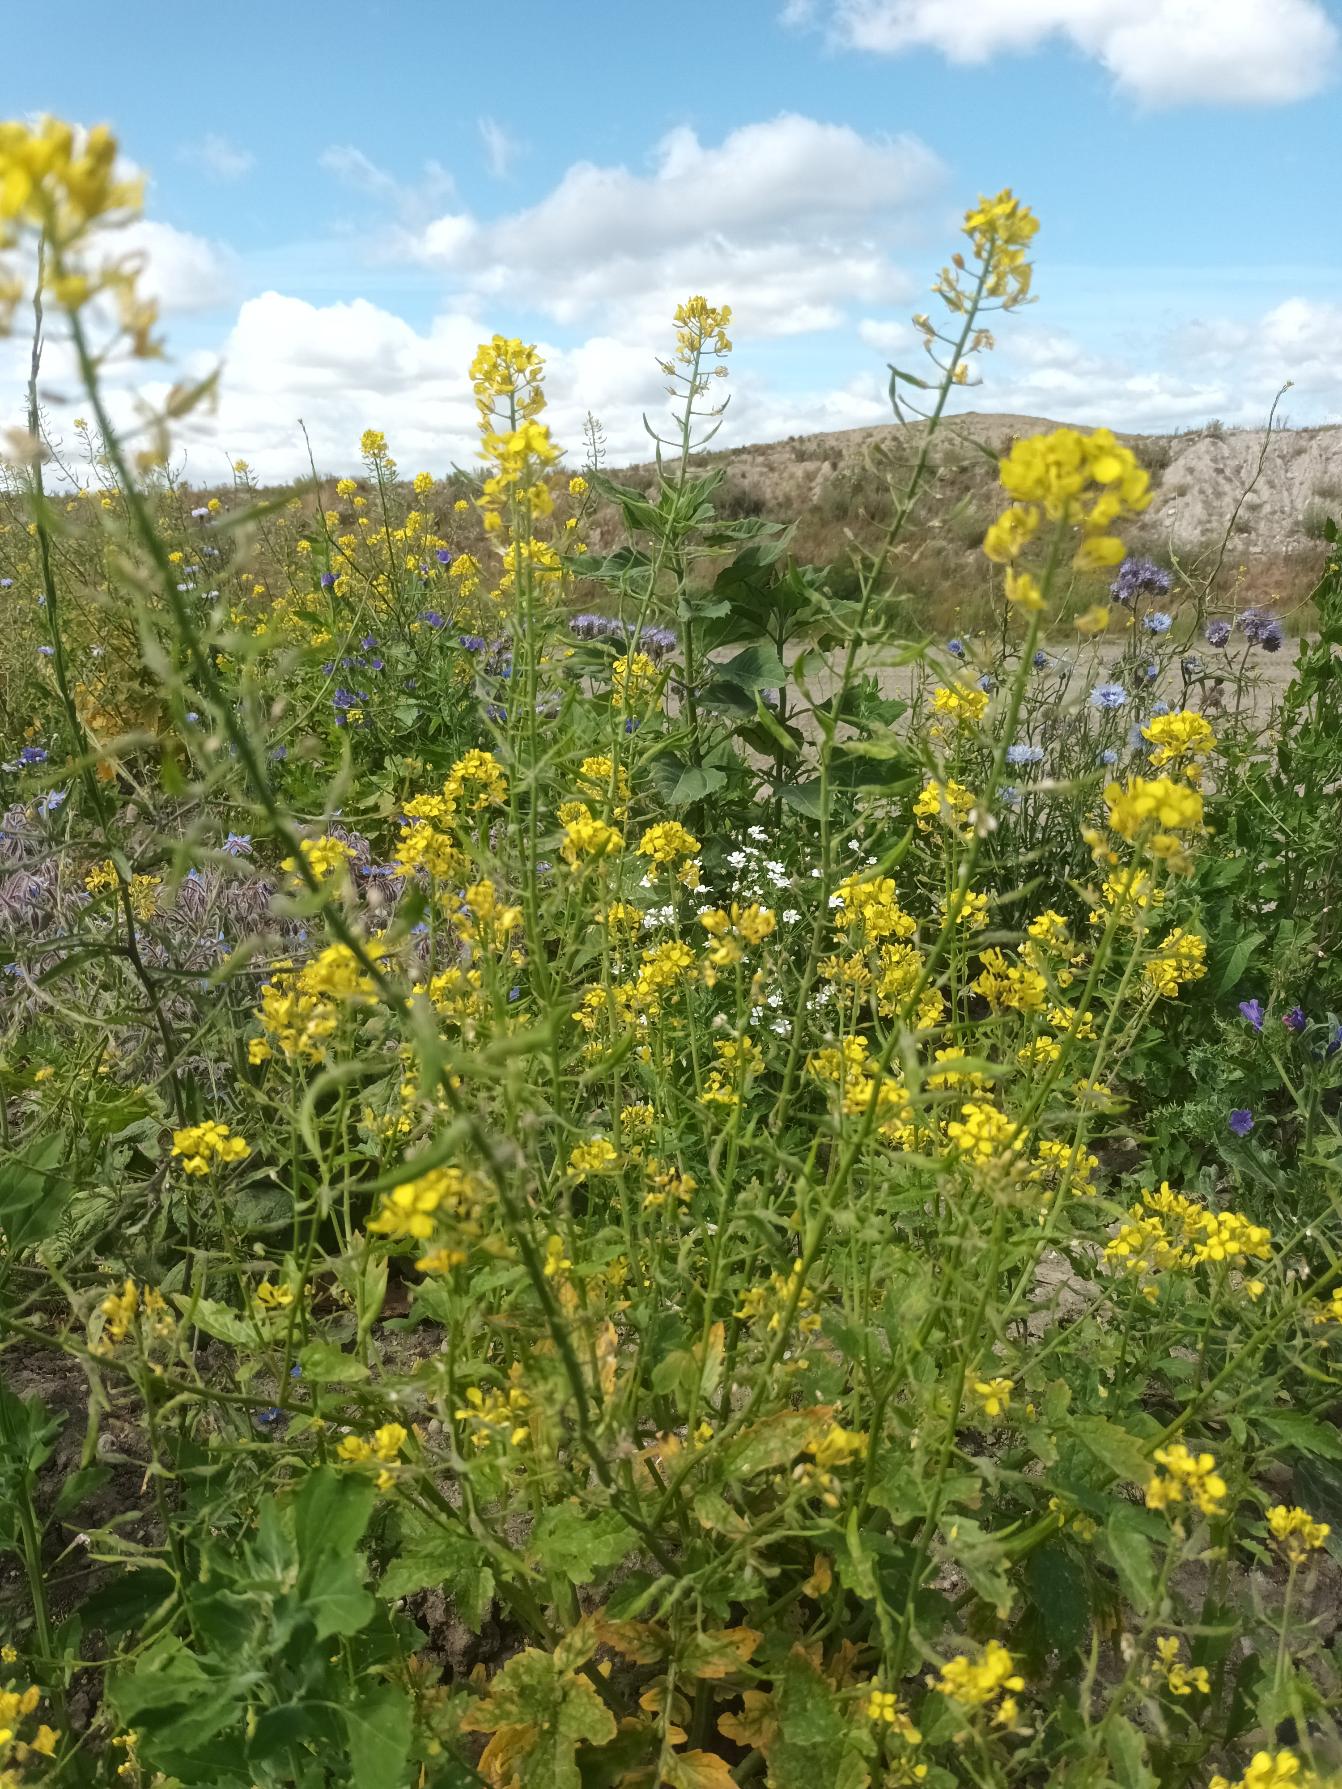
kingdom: Plantae
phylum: Tracheophyta
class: Magnoliopsida
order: Brassicales
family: Brassicaceae
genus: Sinapis
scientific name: Sinapis alba
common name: Gul sennep
